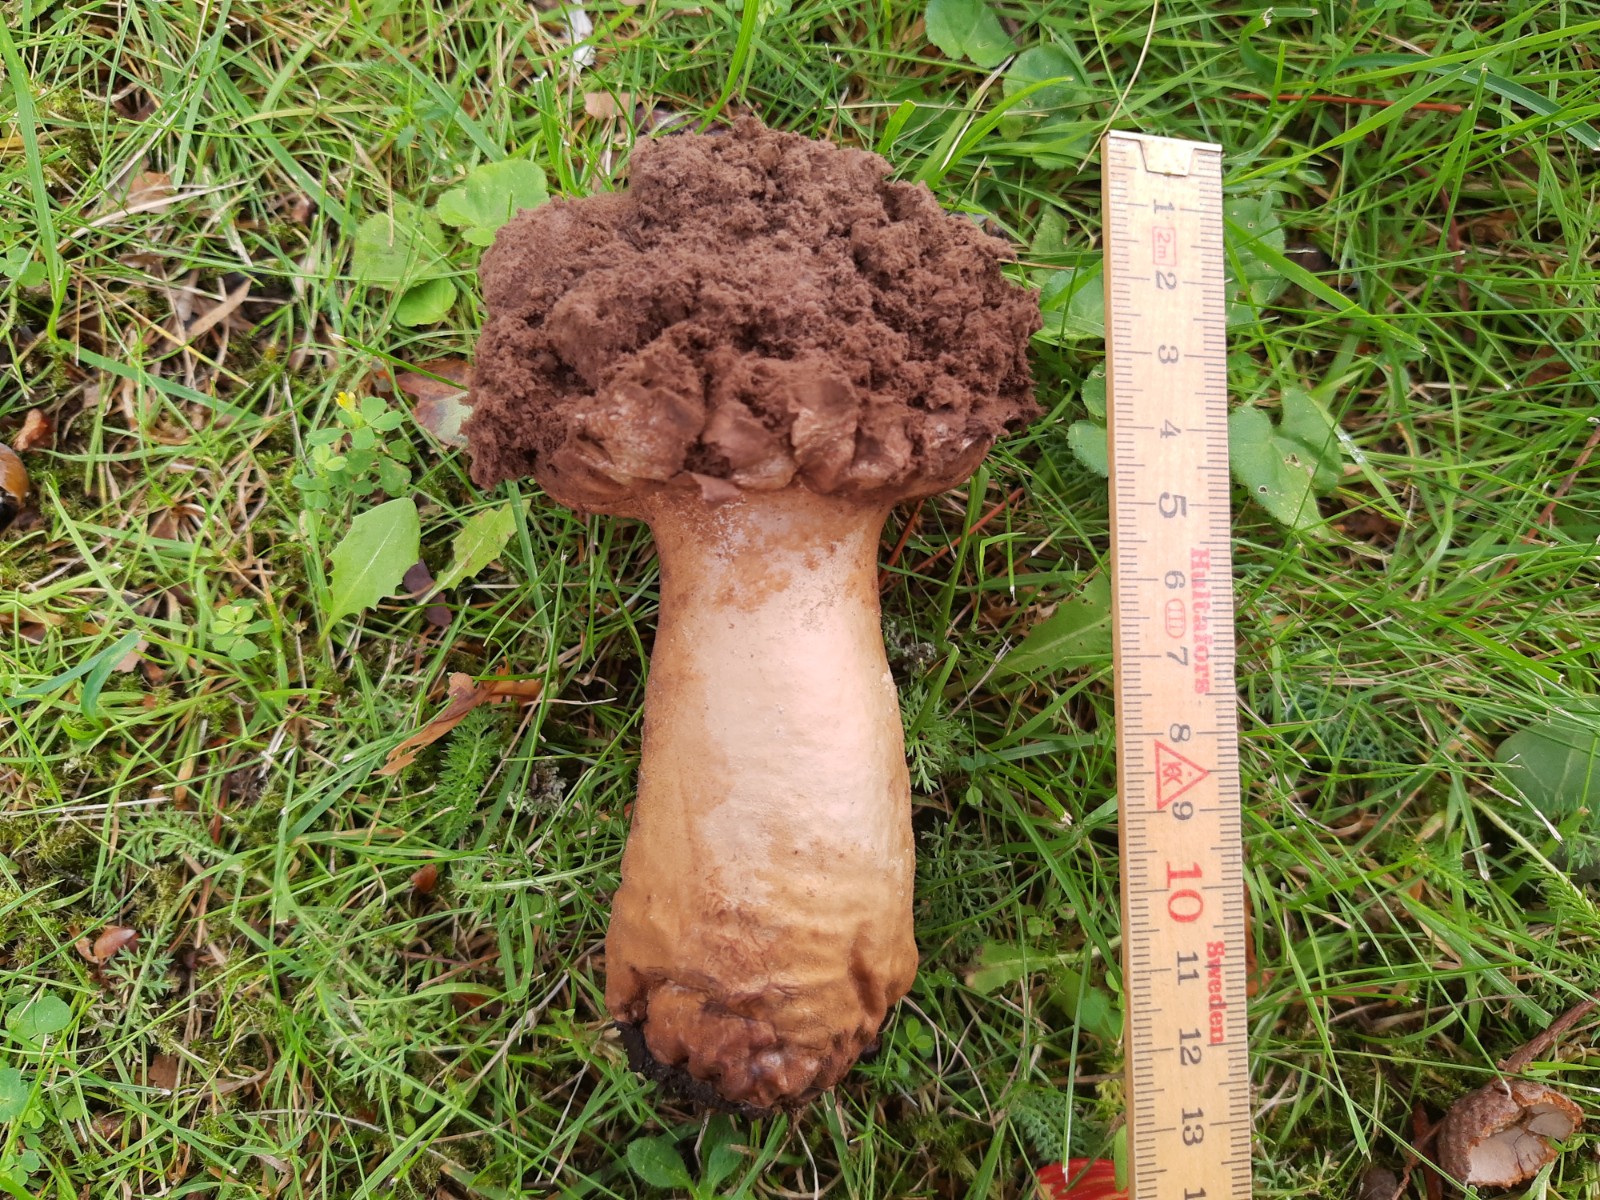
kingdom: Fungi
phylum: Basidiomycota
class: Agaricomycetes
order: Agaricales
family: Lycoperdaceae
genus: Lycoperdon
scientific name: Lycoperdon excipuliforme
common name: højstokket støvbold
